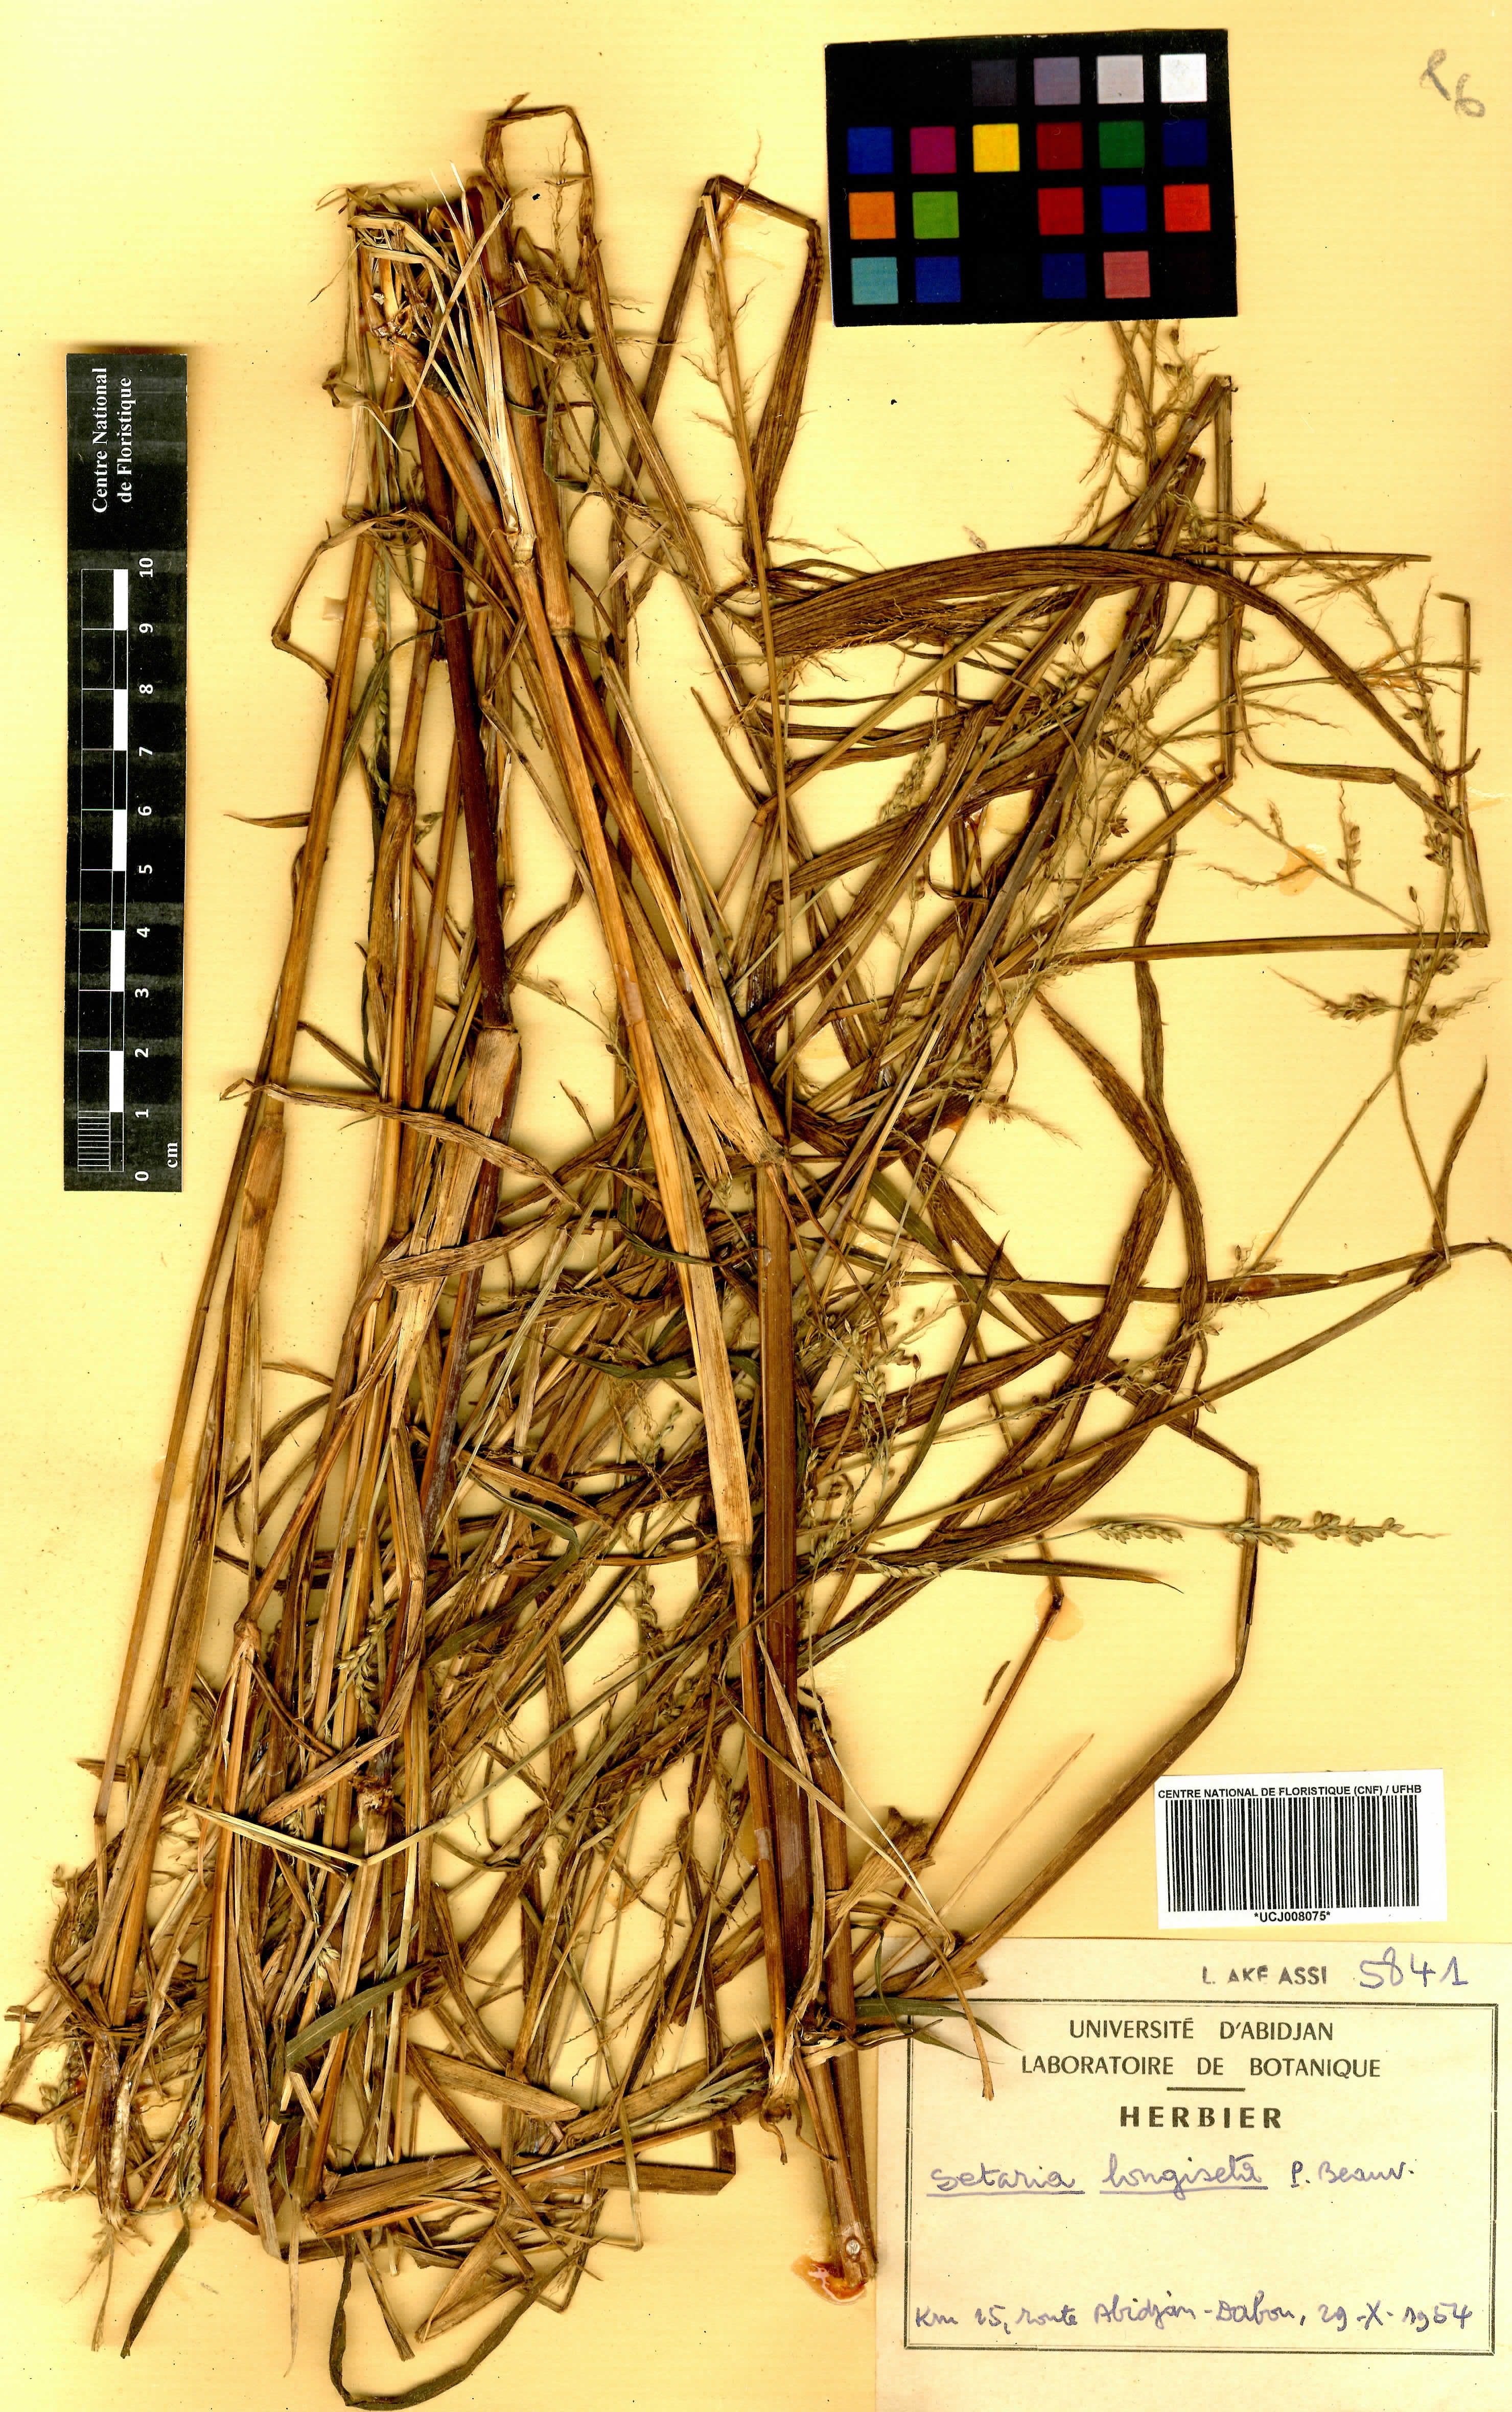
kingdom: Plantae
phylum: Tracheophyta
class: Liliopsida
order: Poales
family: Poaceae
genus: Setaria
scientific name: Setaria longiseta
